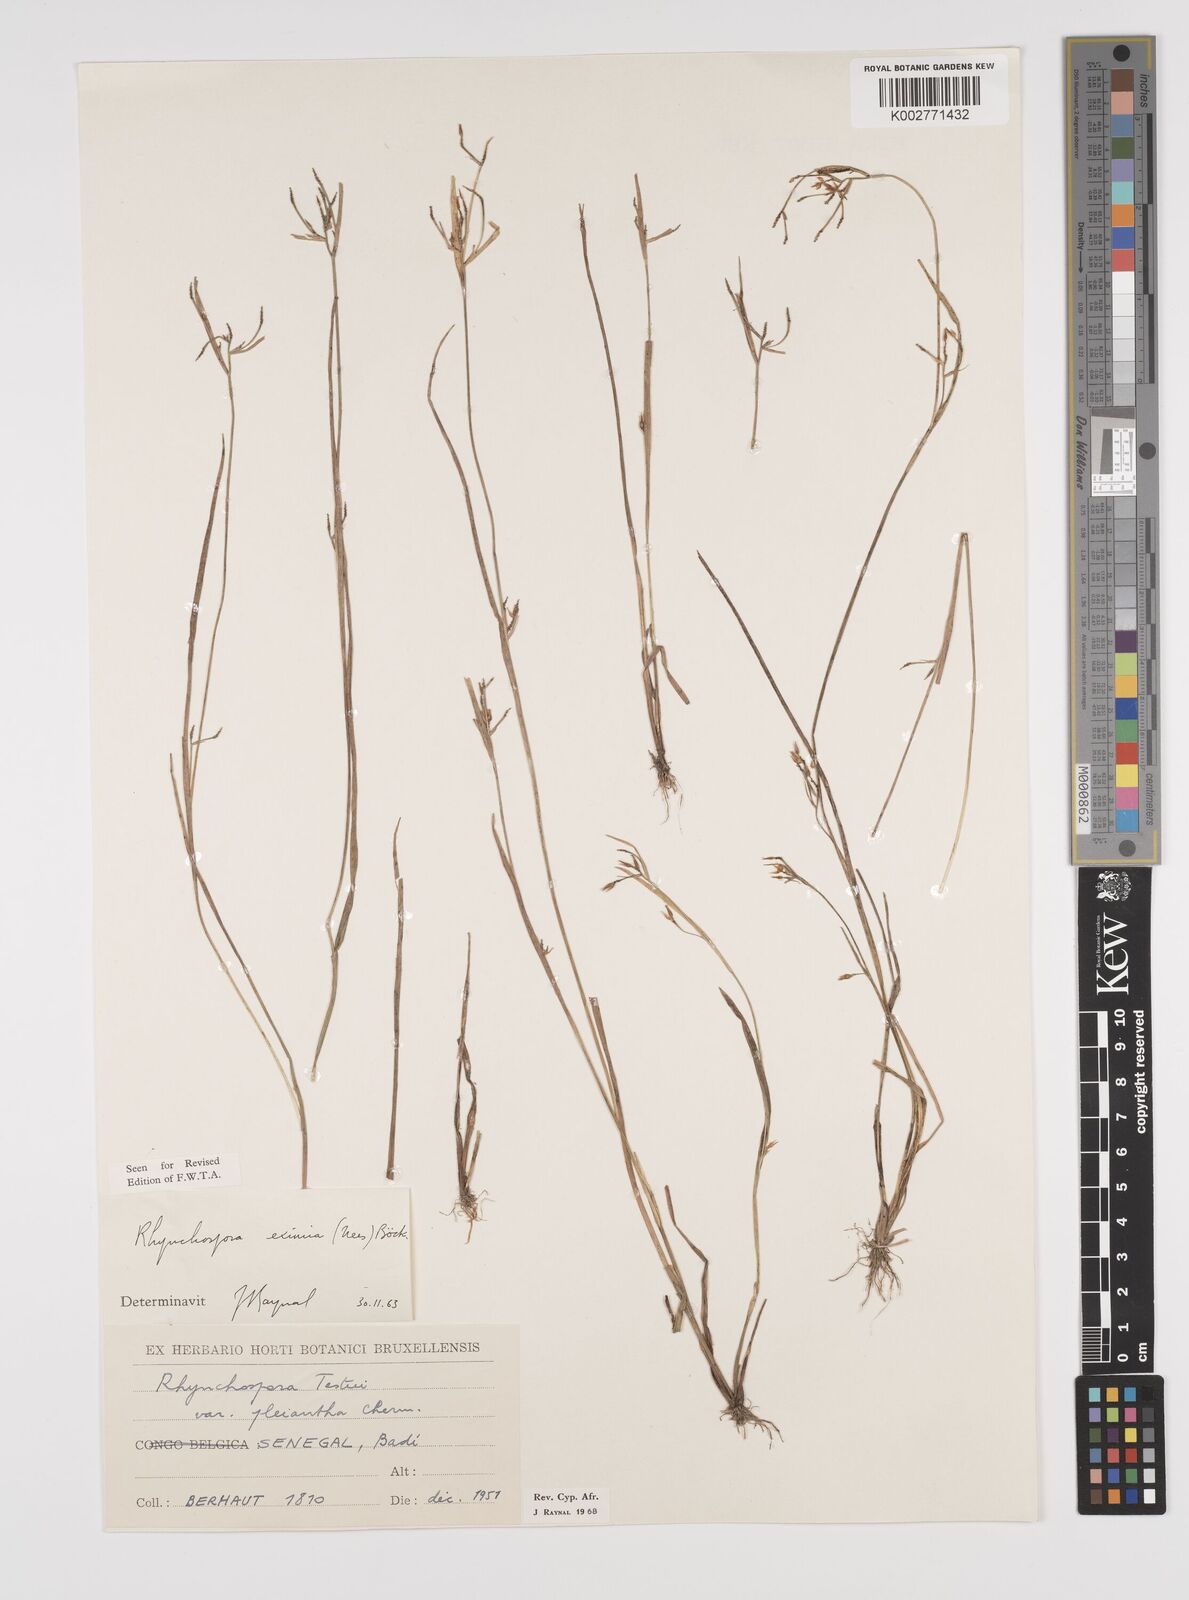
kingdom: Plantae
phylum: Tracheophyta
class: Liliopsida
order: Poales
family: Cyperaceae
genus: Rhynchospora
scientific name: Rhynchospora
